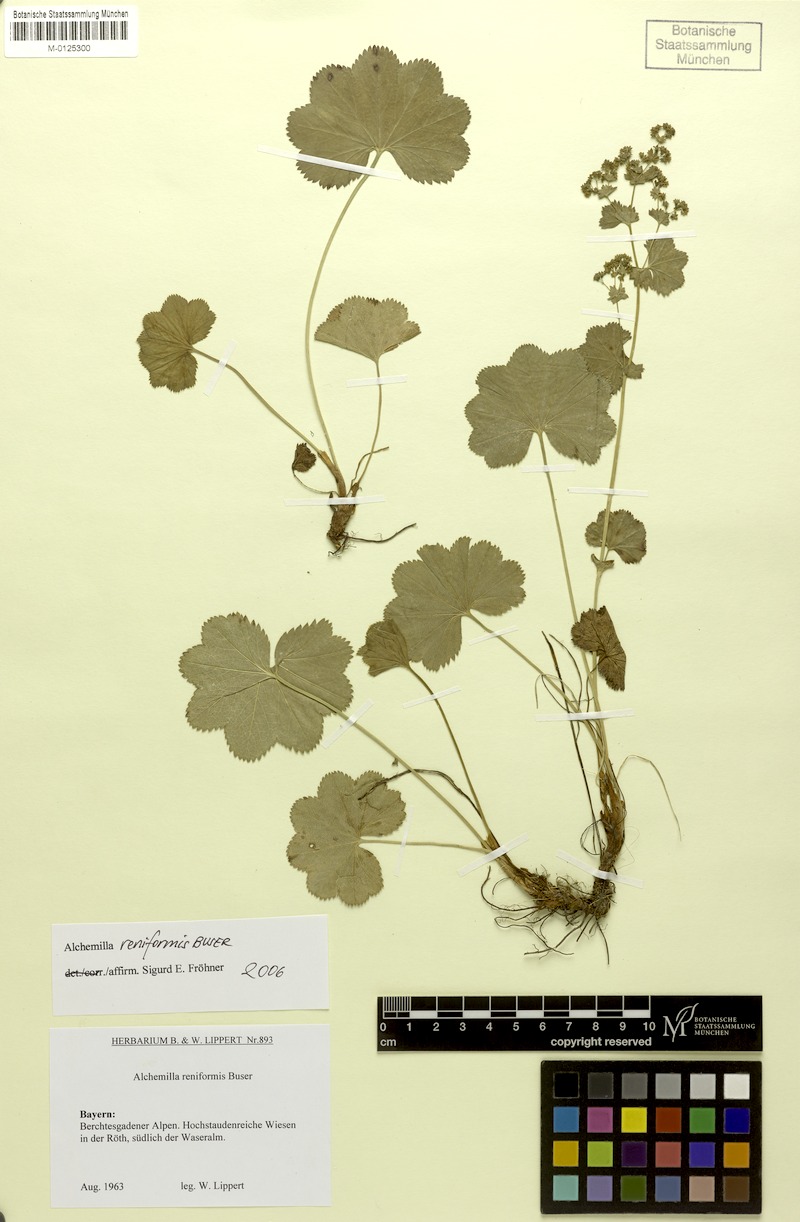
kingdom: Plantae
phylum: Tracheophyta
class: Magnoliopsida
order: Rosales
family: Rosaceae
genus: Alchemilla
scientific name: Alchemilla reniformis
